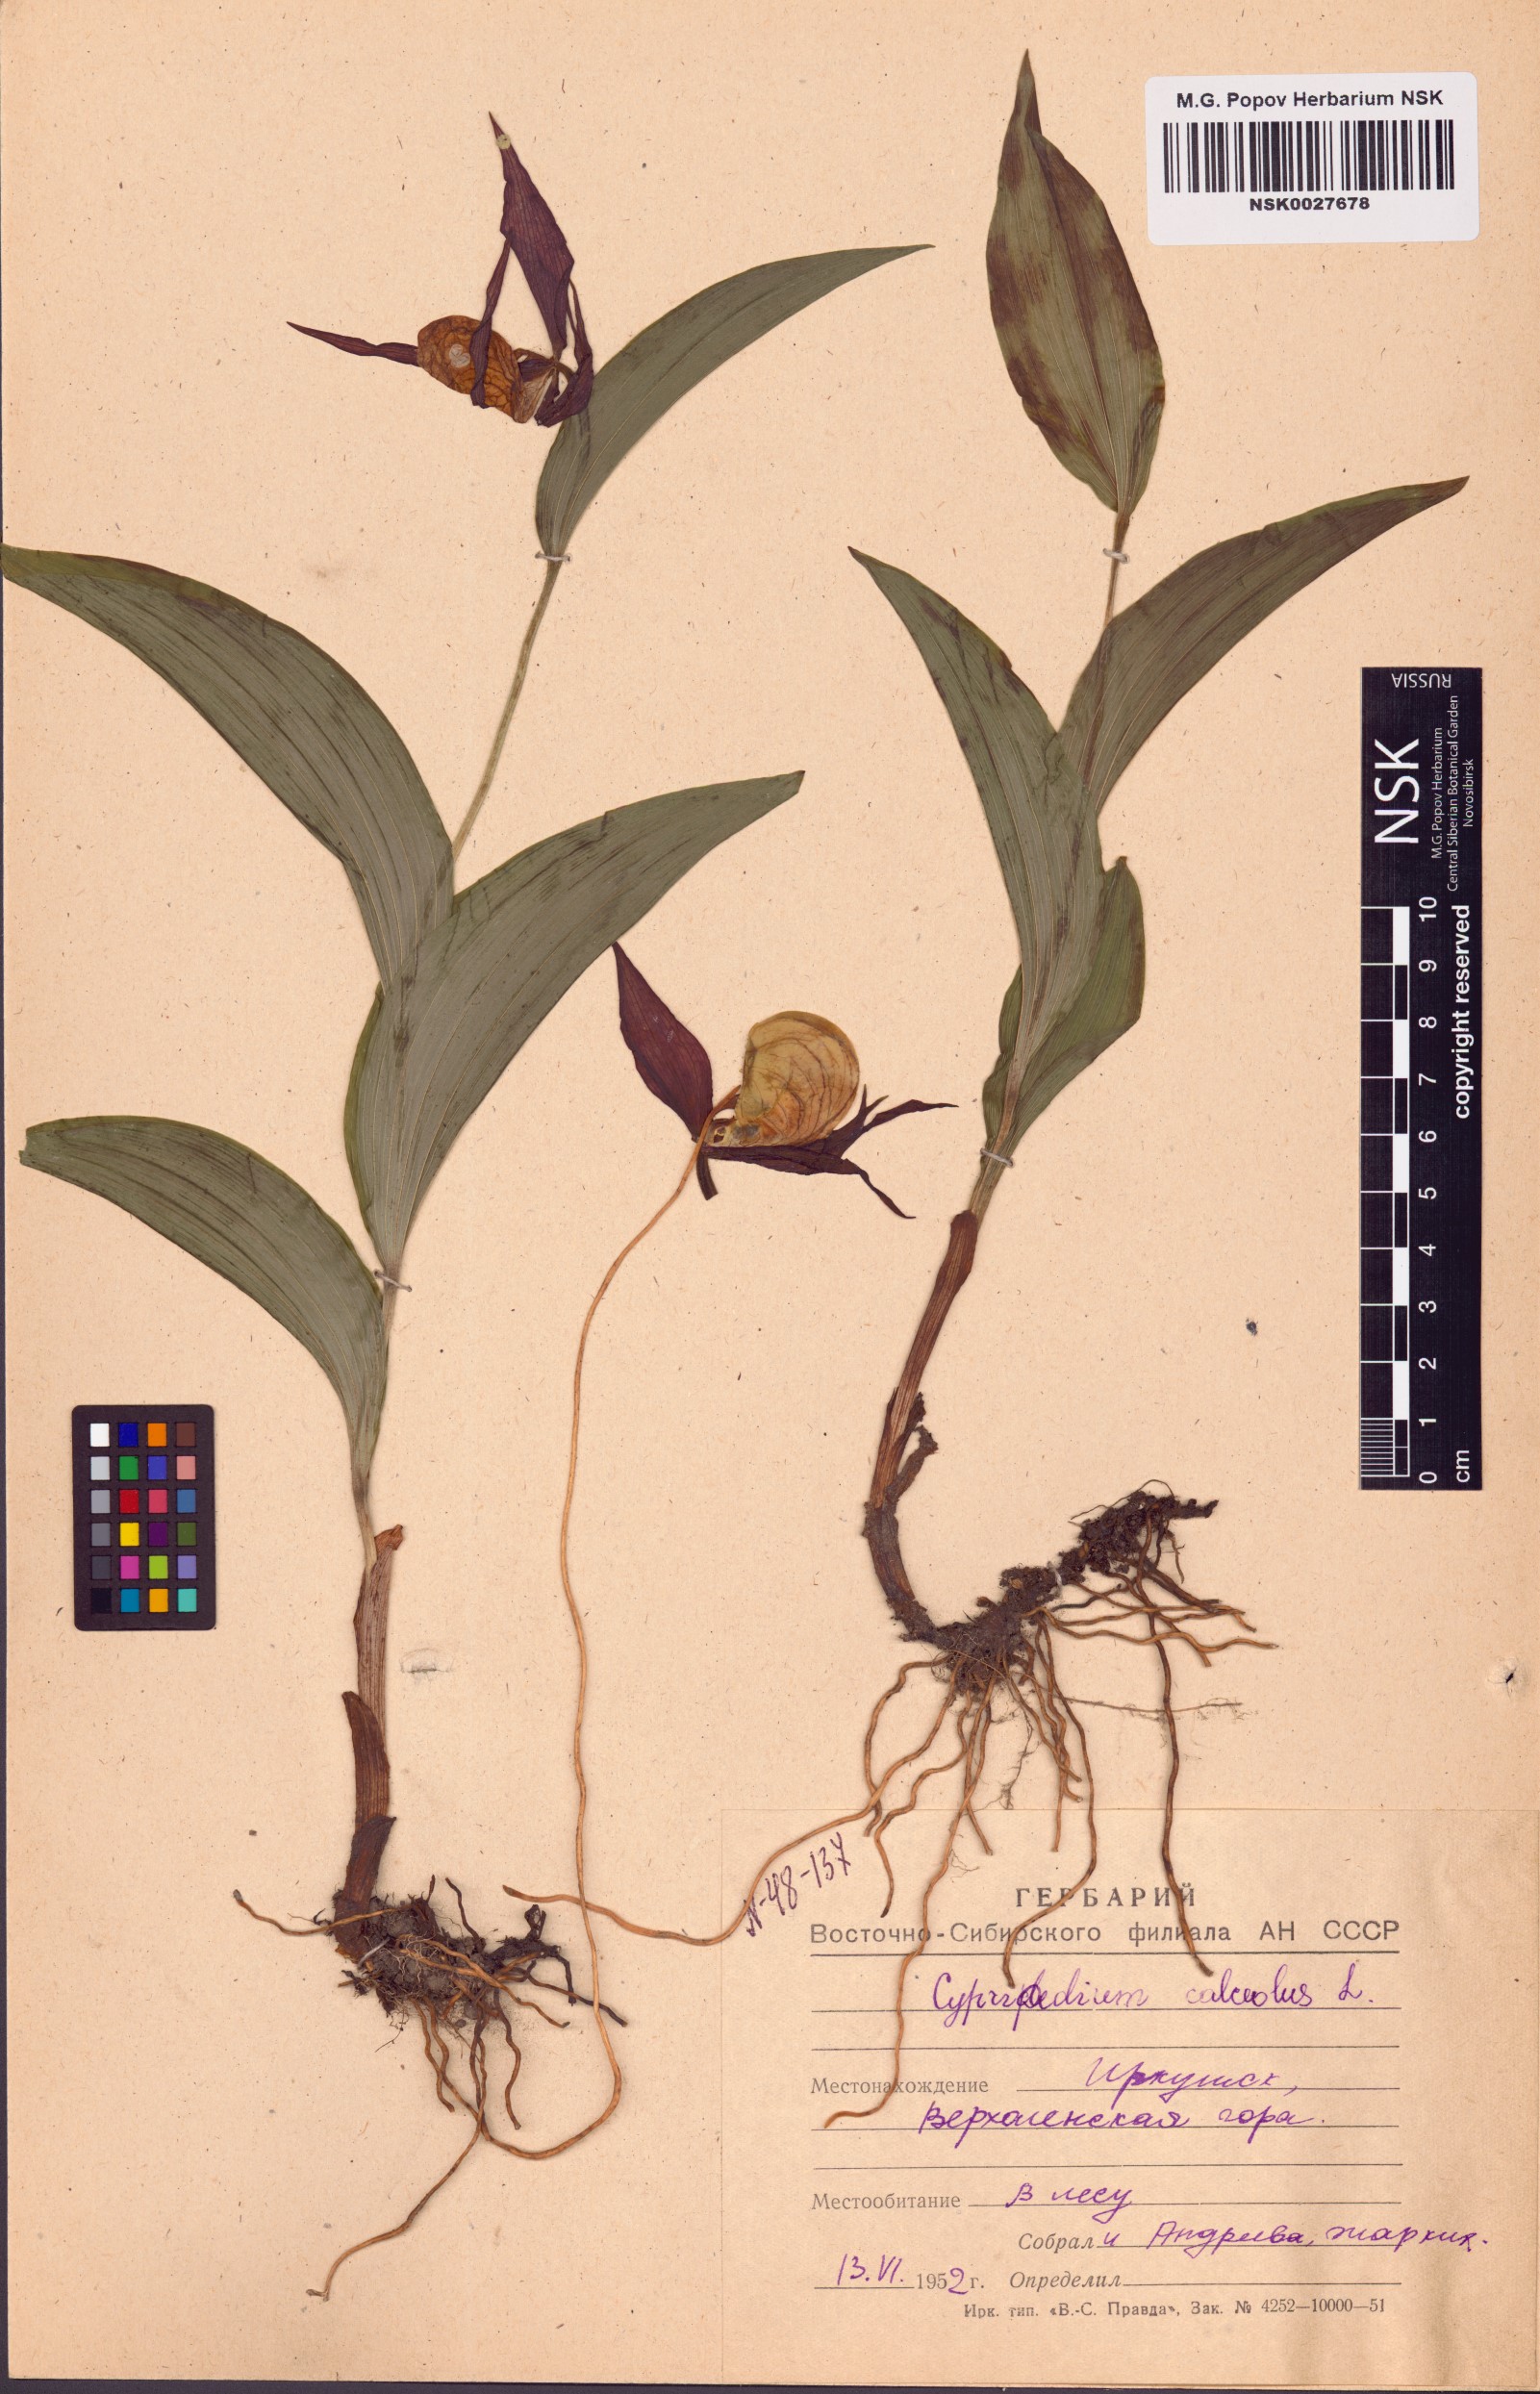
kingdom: Plantae
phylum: Tracheophyta
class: Liliopsida
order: Asparagales
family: Orchidaceae
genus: Cypripedium
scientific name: Cypripedium calceolus
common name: Lady's-slipper
